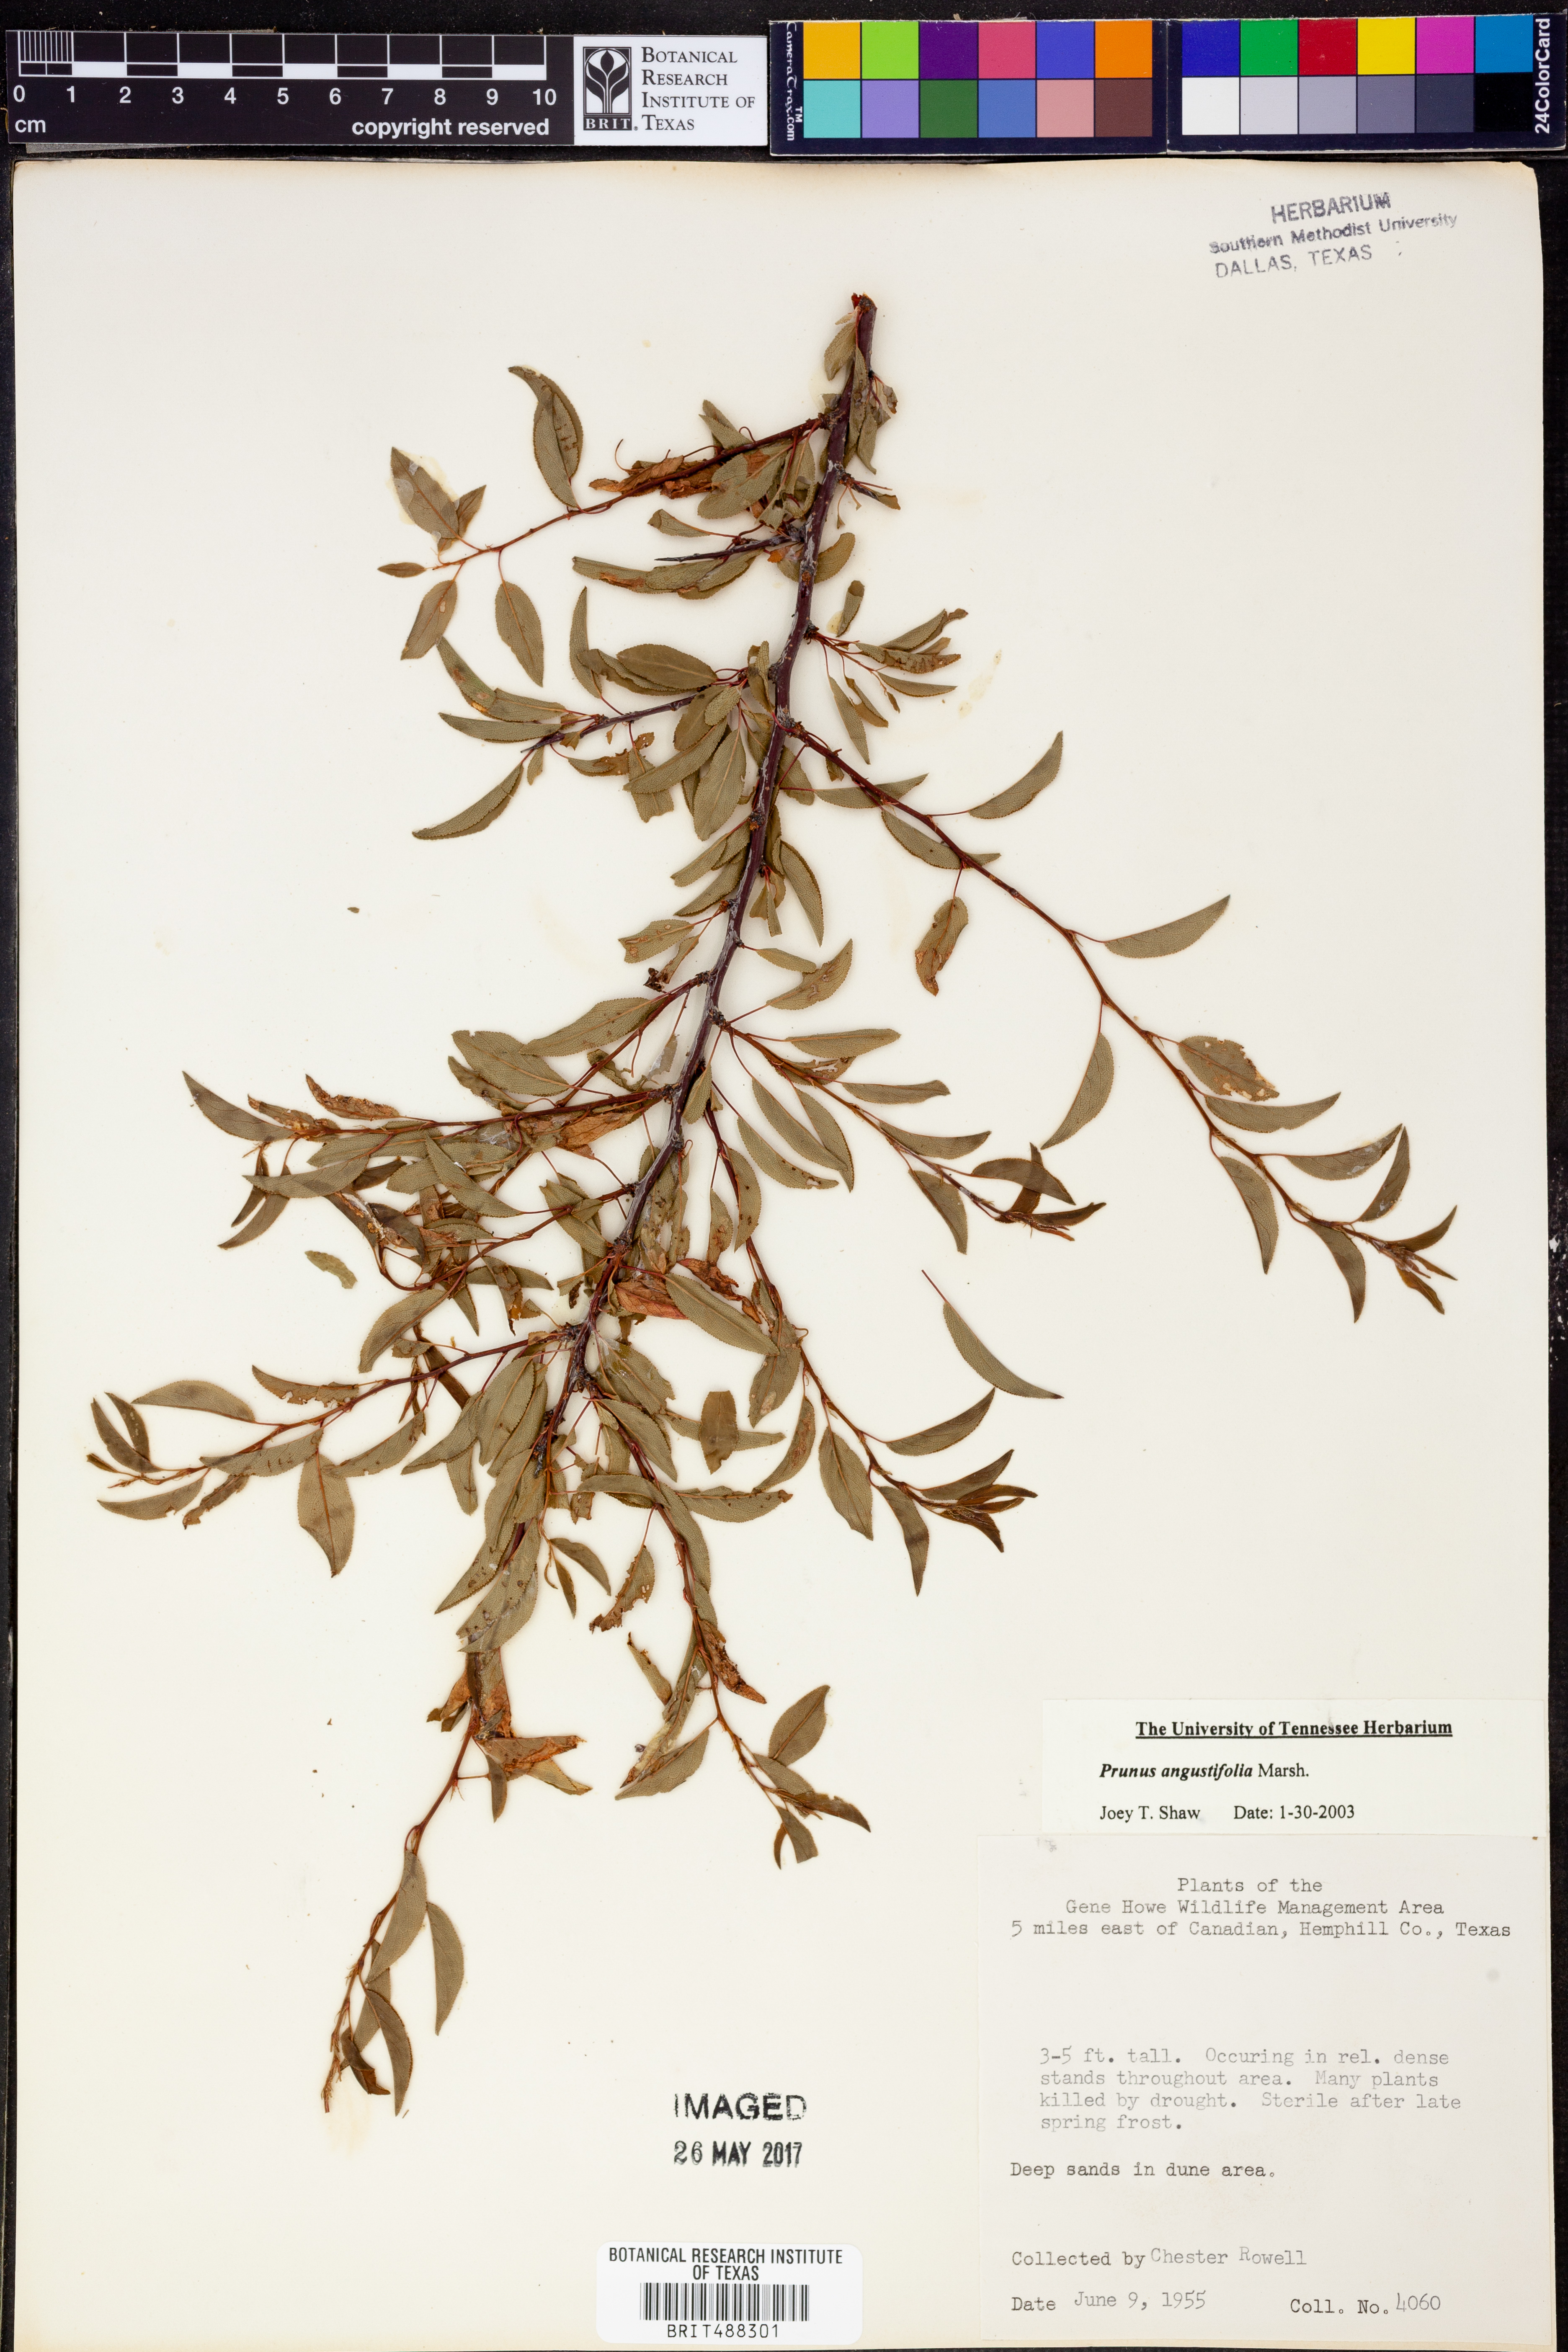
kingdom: Plantae
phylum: Tracheophyta
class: Magnoliopsida
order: Rosales
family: Rosaceae
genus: Prunus
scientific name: Prunus angustifolia
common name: Cherokee plum
